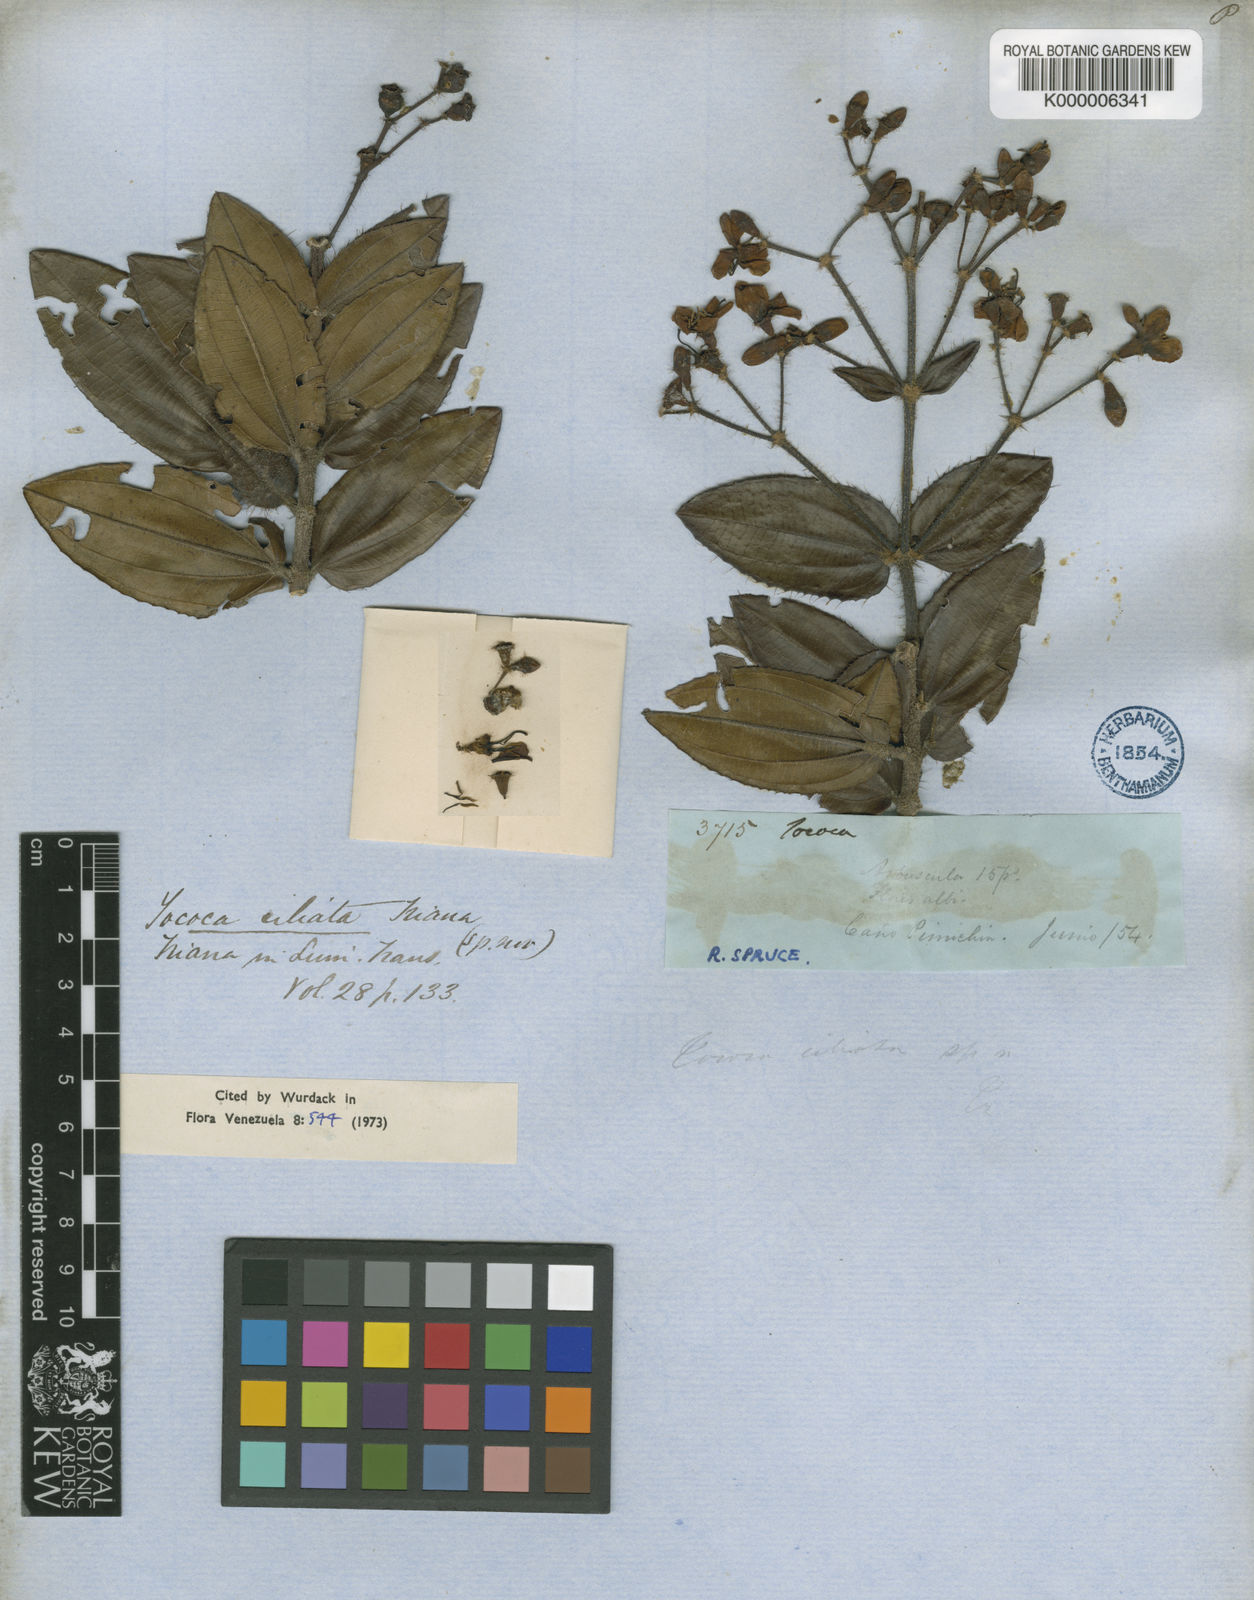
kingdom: Plantae
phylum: Tracheophyta
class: Magnoliopsida
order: Myrtales
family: Melastomataceae
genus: Miconia
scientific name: Miconia tocociliata
